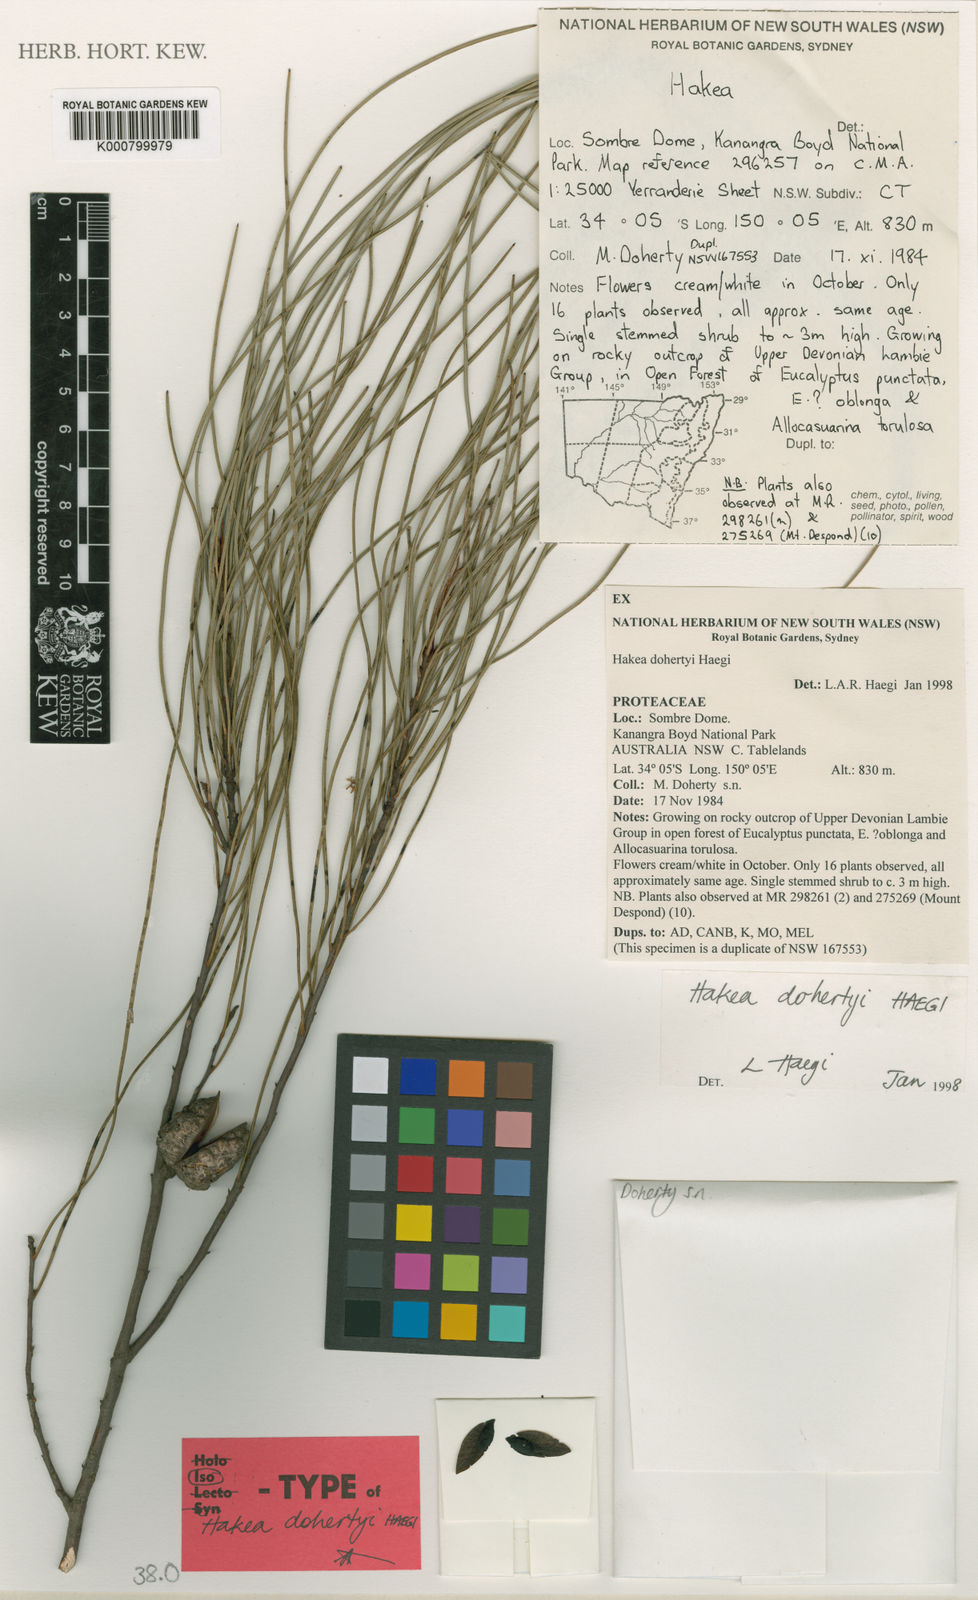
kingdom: Plantae
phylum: Tracheophyta
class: Magnoliopsida
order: Proteales
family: Proteaceae
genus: Hakea
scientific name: Hakea dohertyi
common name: Kowmung hakea
